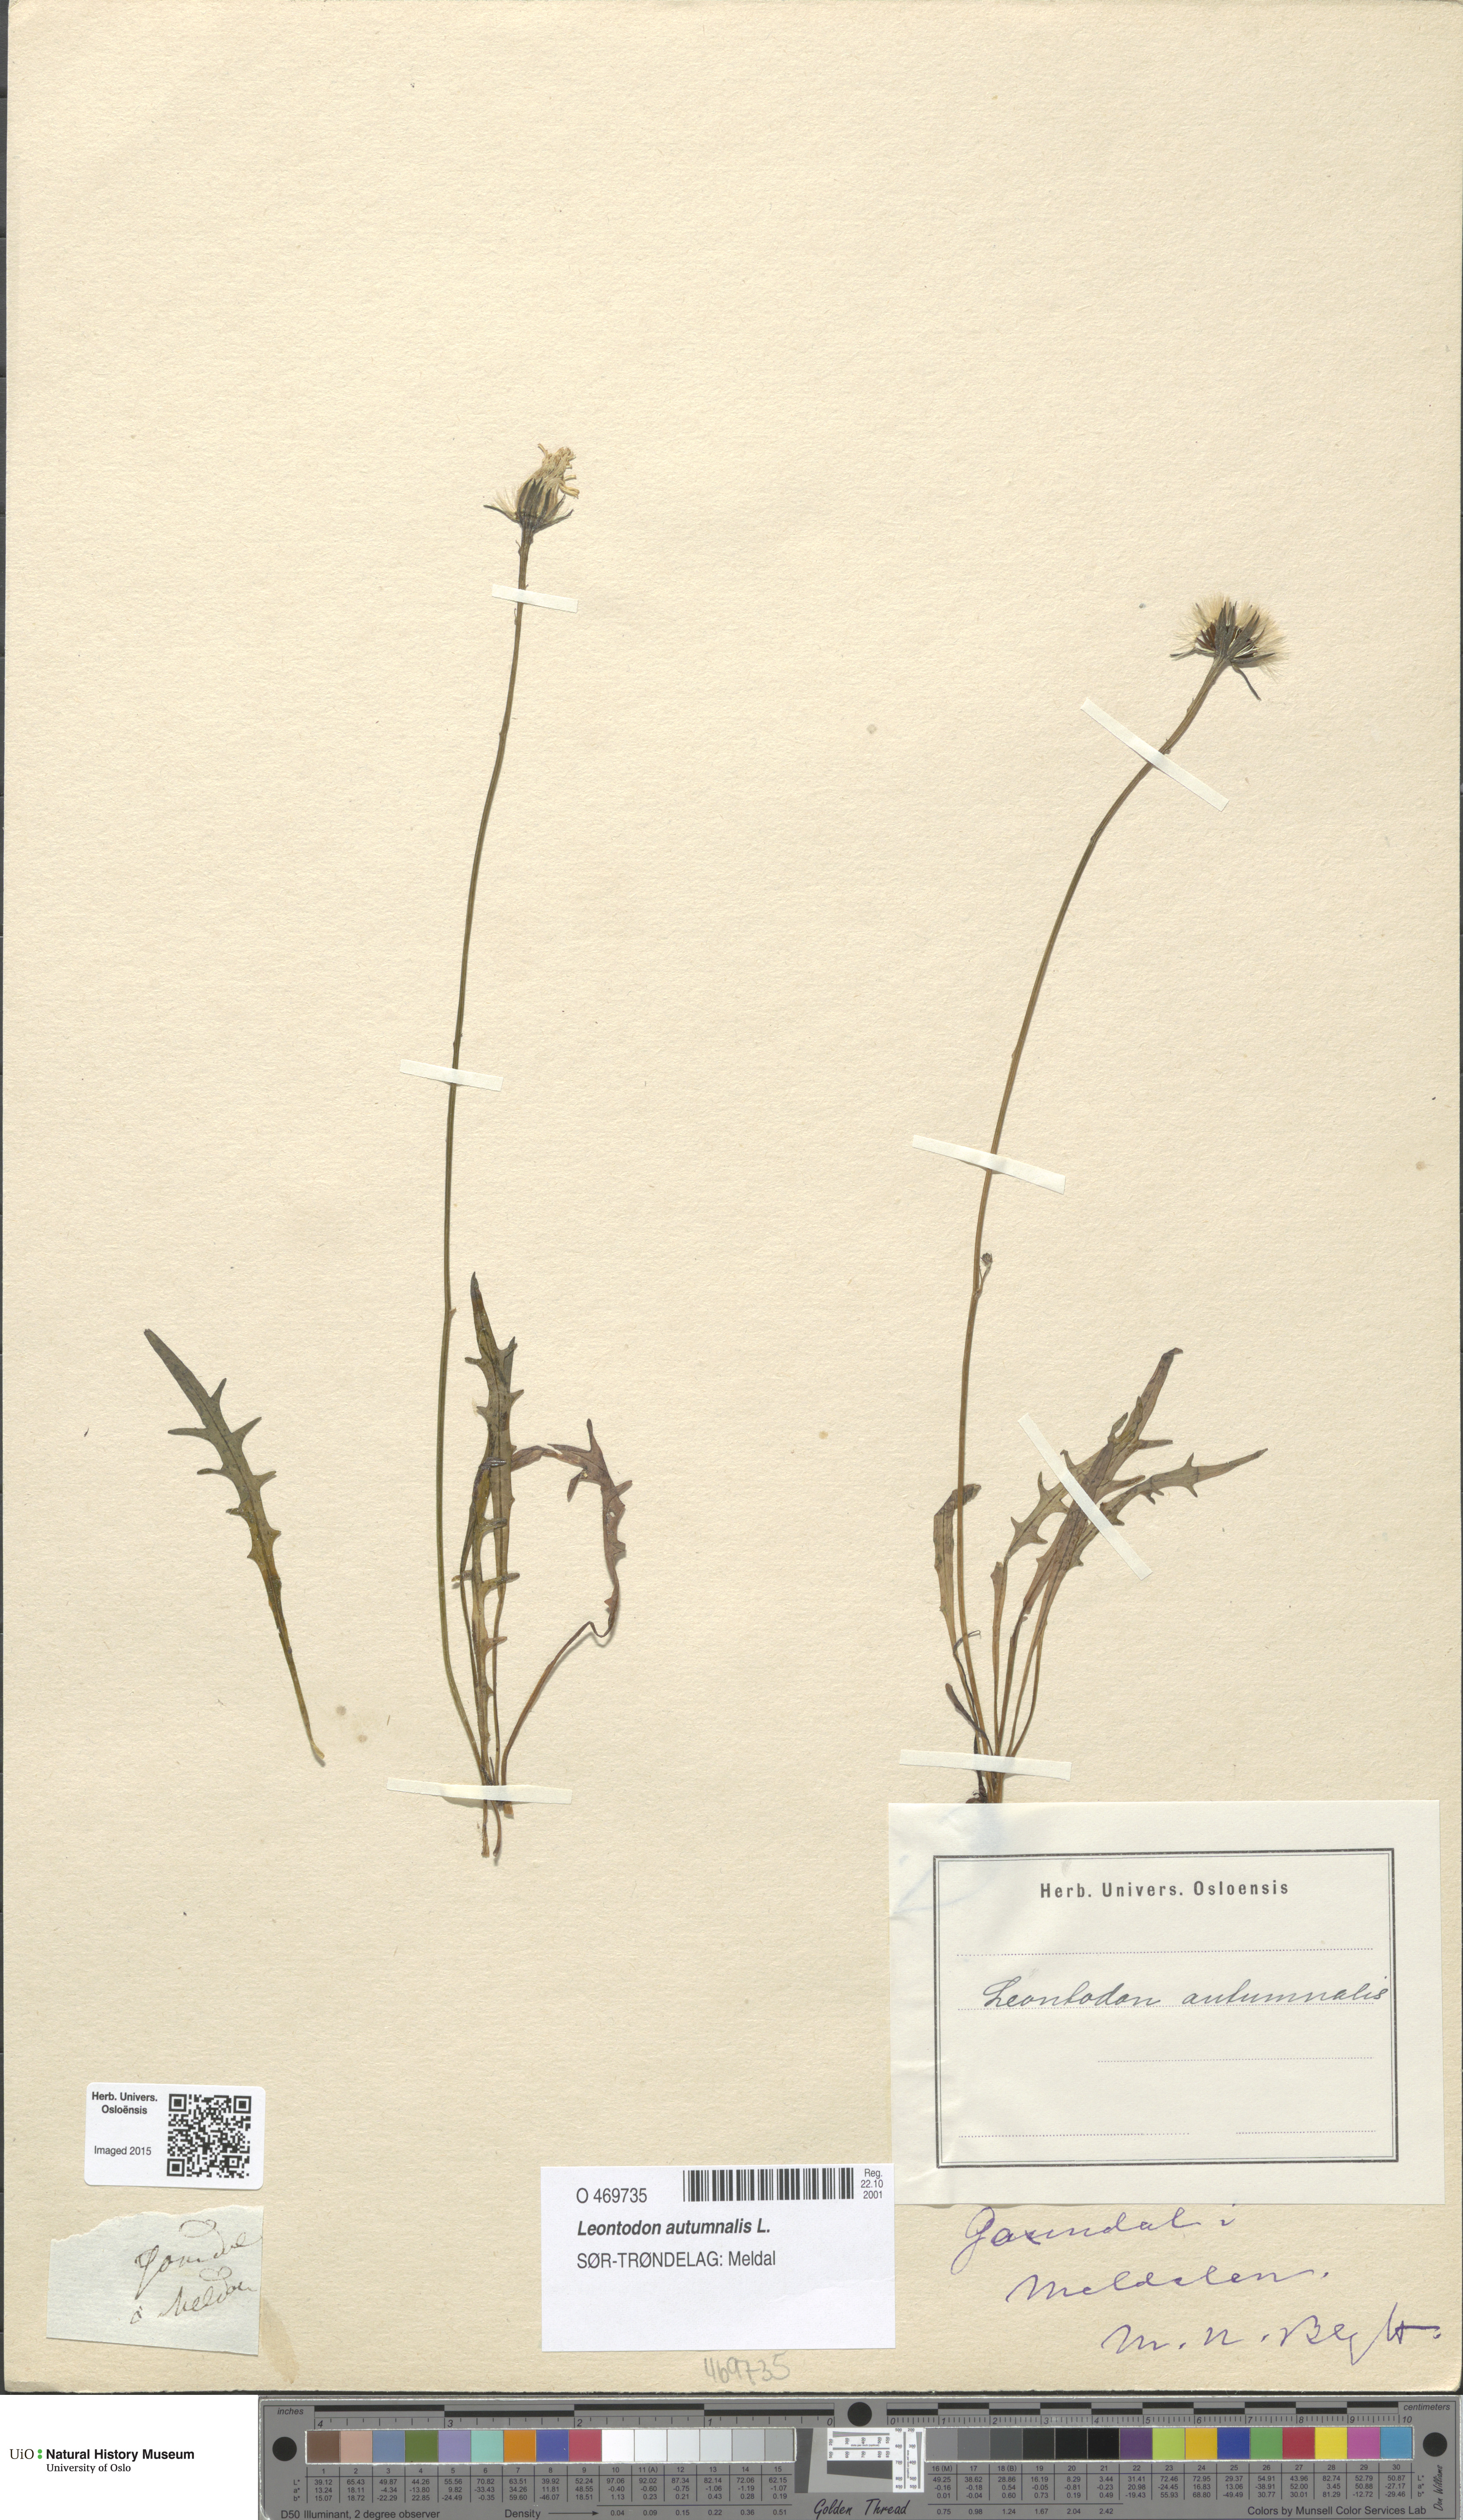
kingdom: Plantae
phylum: Tracheophyta
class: Magnoliopsida
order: Asterales
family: Asteraceae
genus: Scorzoneroides
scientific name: Scorzoneroides autumnalis
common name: Autumn hawkbit
